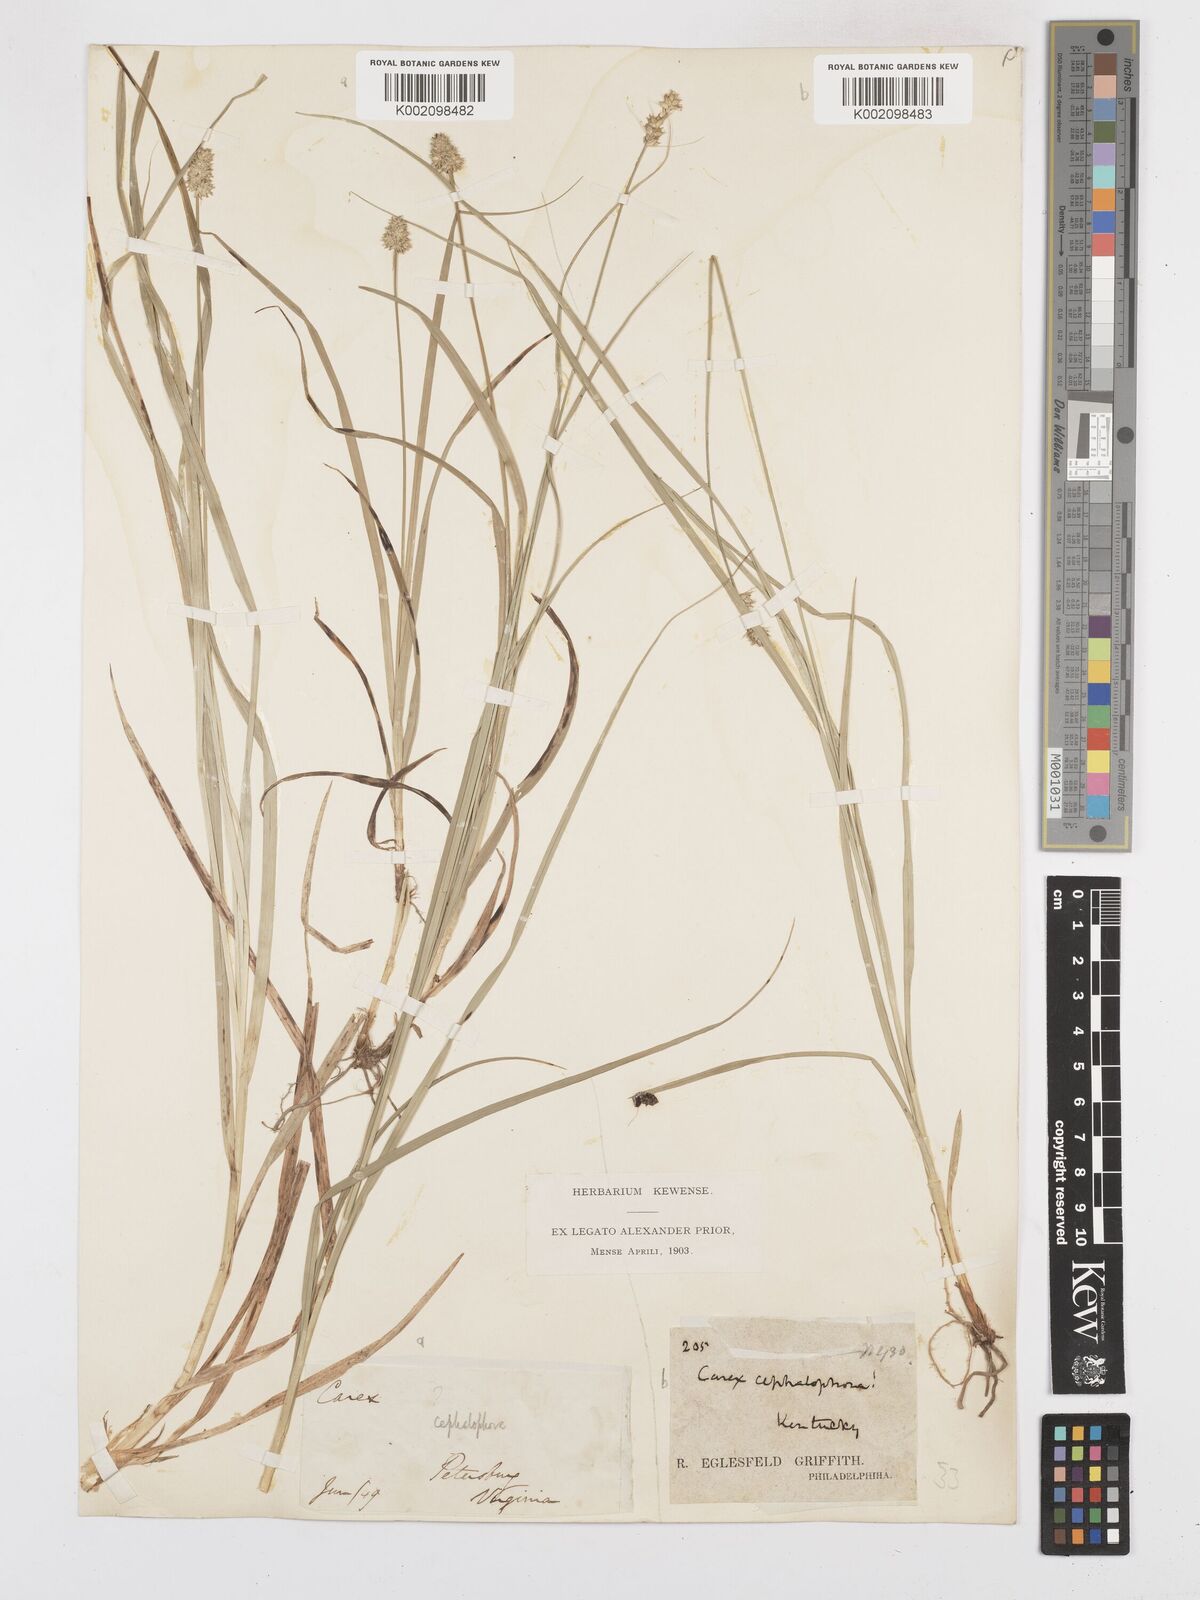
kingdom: Plantae
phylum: Tracheophyta
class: Liliopsida
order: Poales
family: Cyperaceae
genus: Carex
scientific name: Carex cephalophora
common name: Oval-headed sedge
